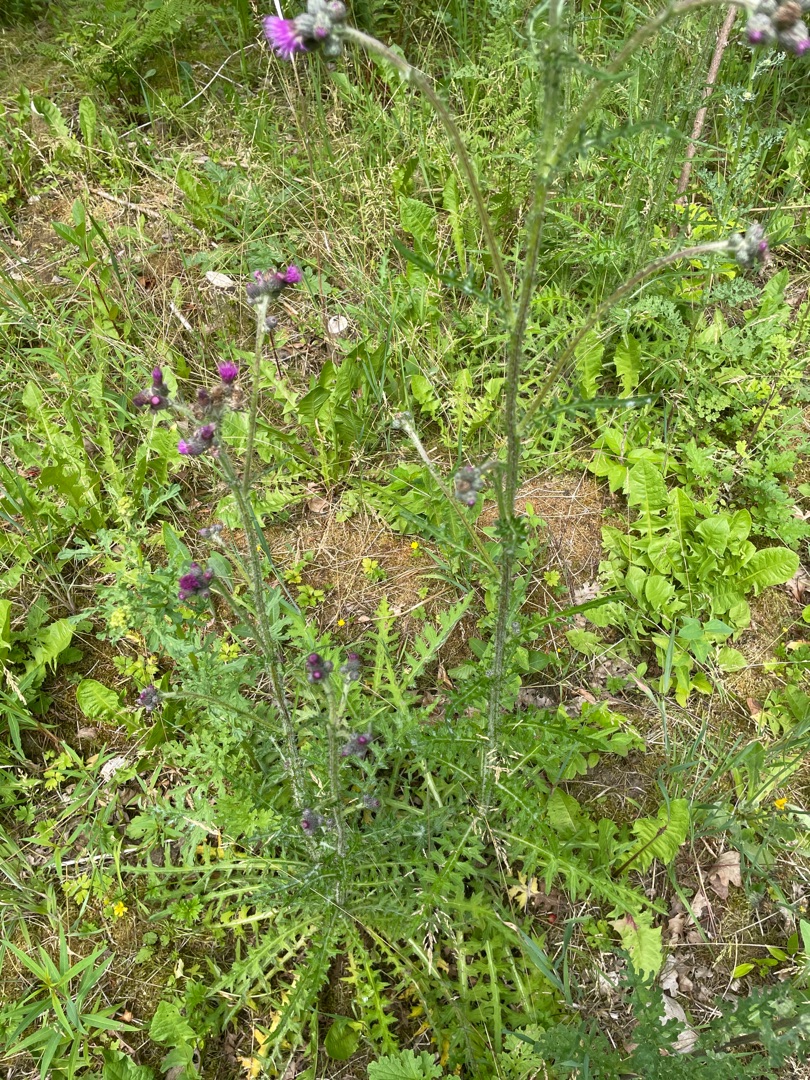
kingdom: Plantae
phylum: Tracheophyta
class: Magnoliopsida
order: Asterales
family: Asteraceae
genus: Cirsium
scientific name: Cirsium palustre
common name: Kær-tidsel
